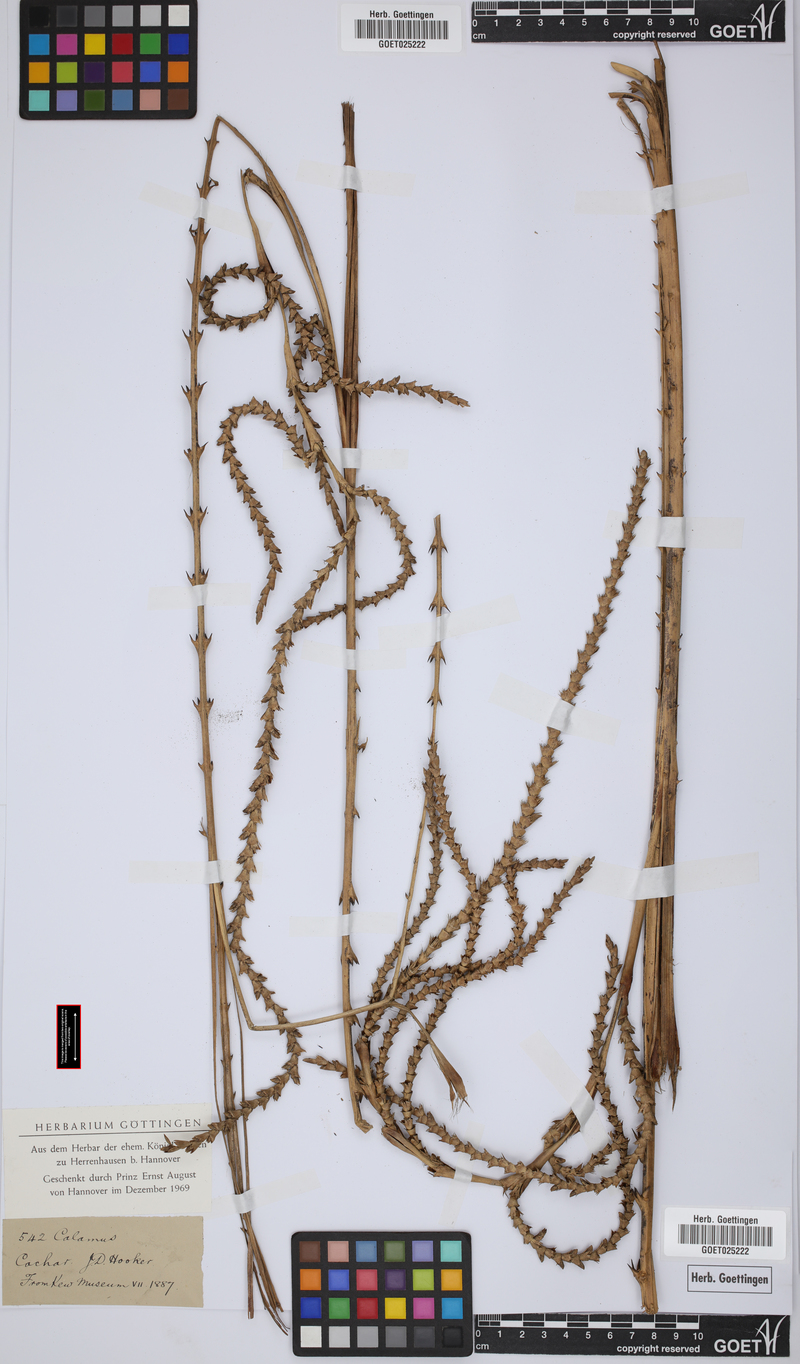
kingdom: Plantae
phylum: Tracheophyta
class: Liliopsida
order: Arecales
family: Arecaceae
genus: Calamus
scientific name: Calamus
